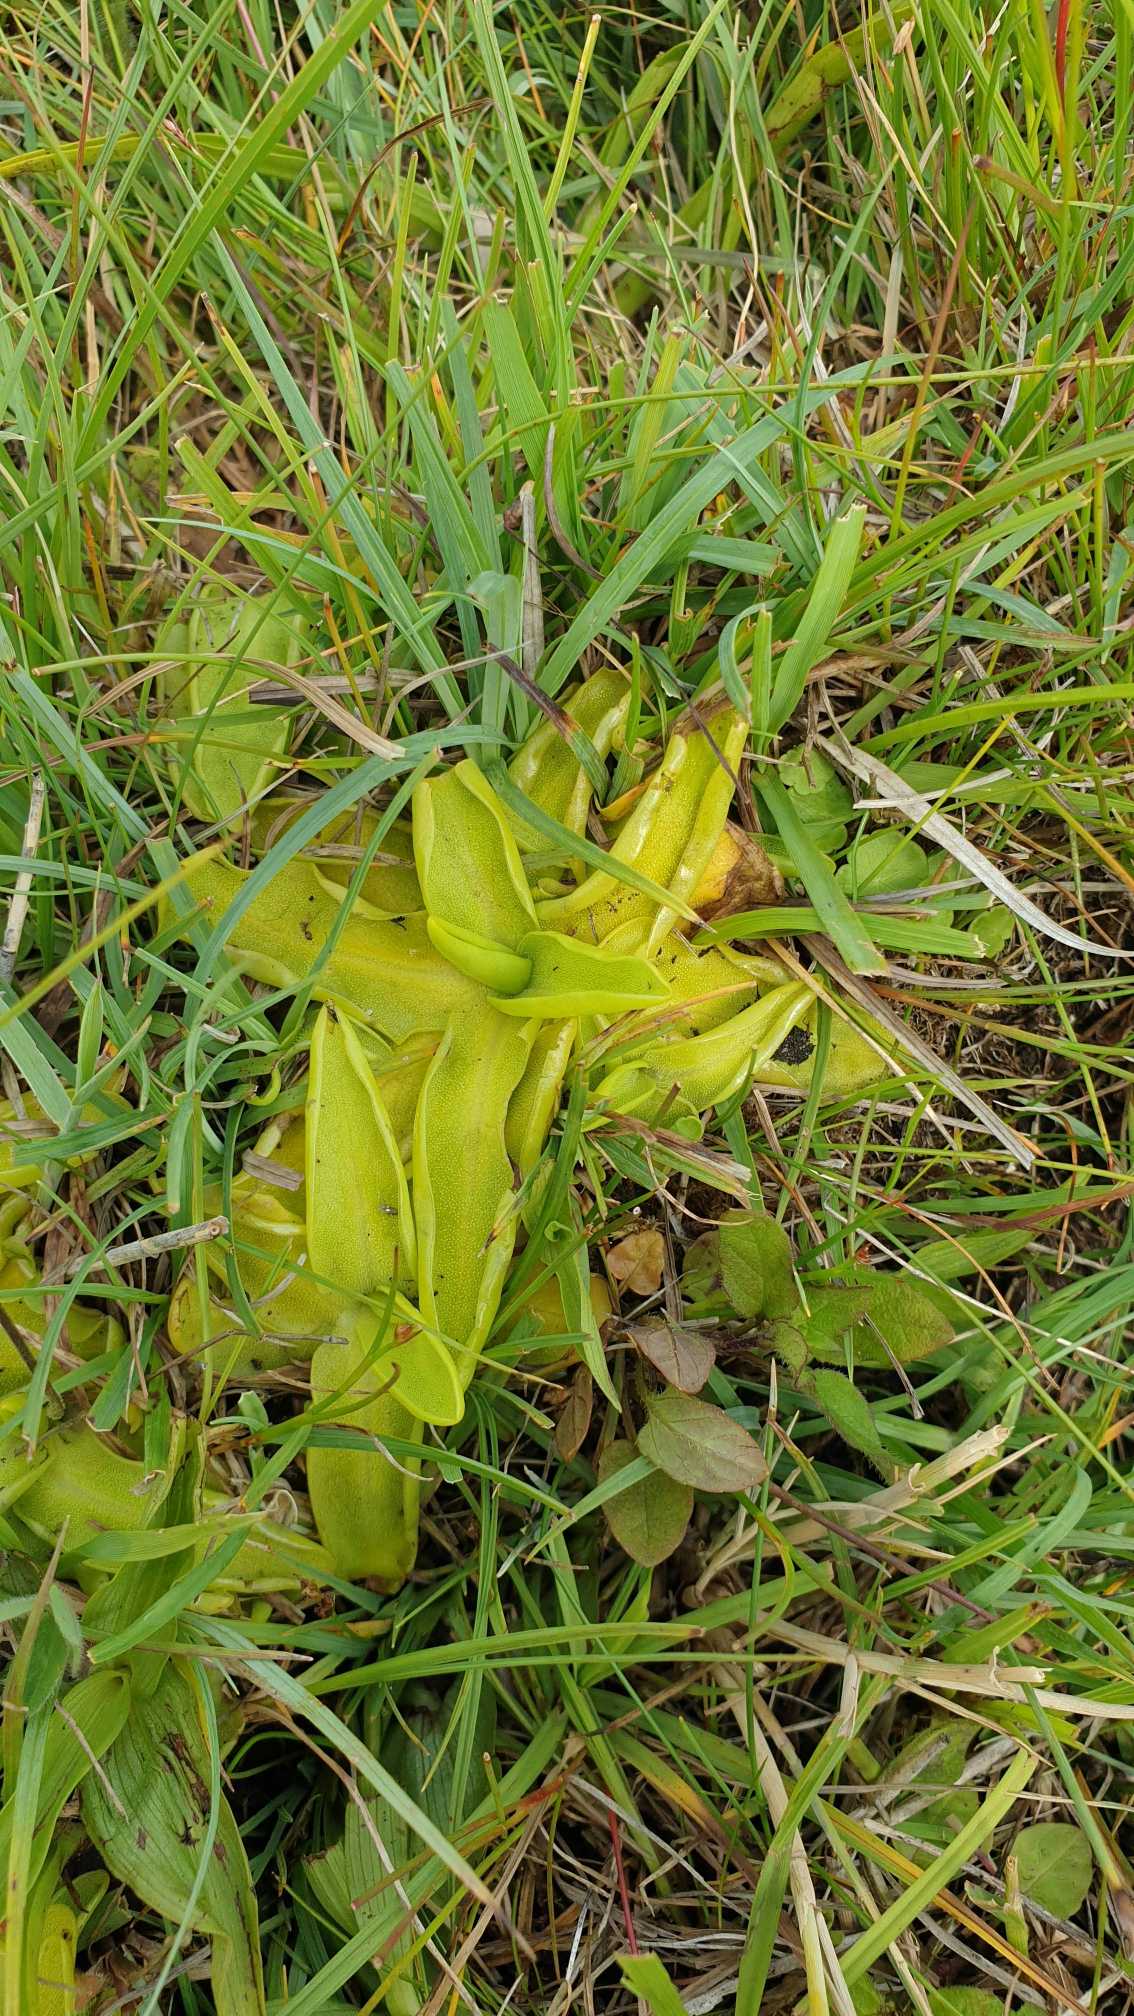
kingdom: Plantae
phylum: Tracheophyta
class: Magnoliopsida
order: Lamiales
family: Lentibulariaceae
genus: Pinguicula
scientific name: Pinguicula vulgaris
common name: Vibefedt
